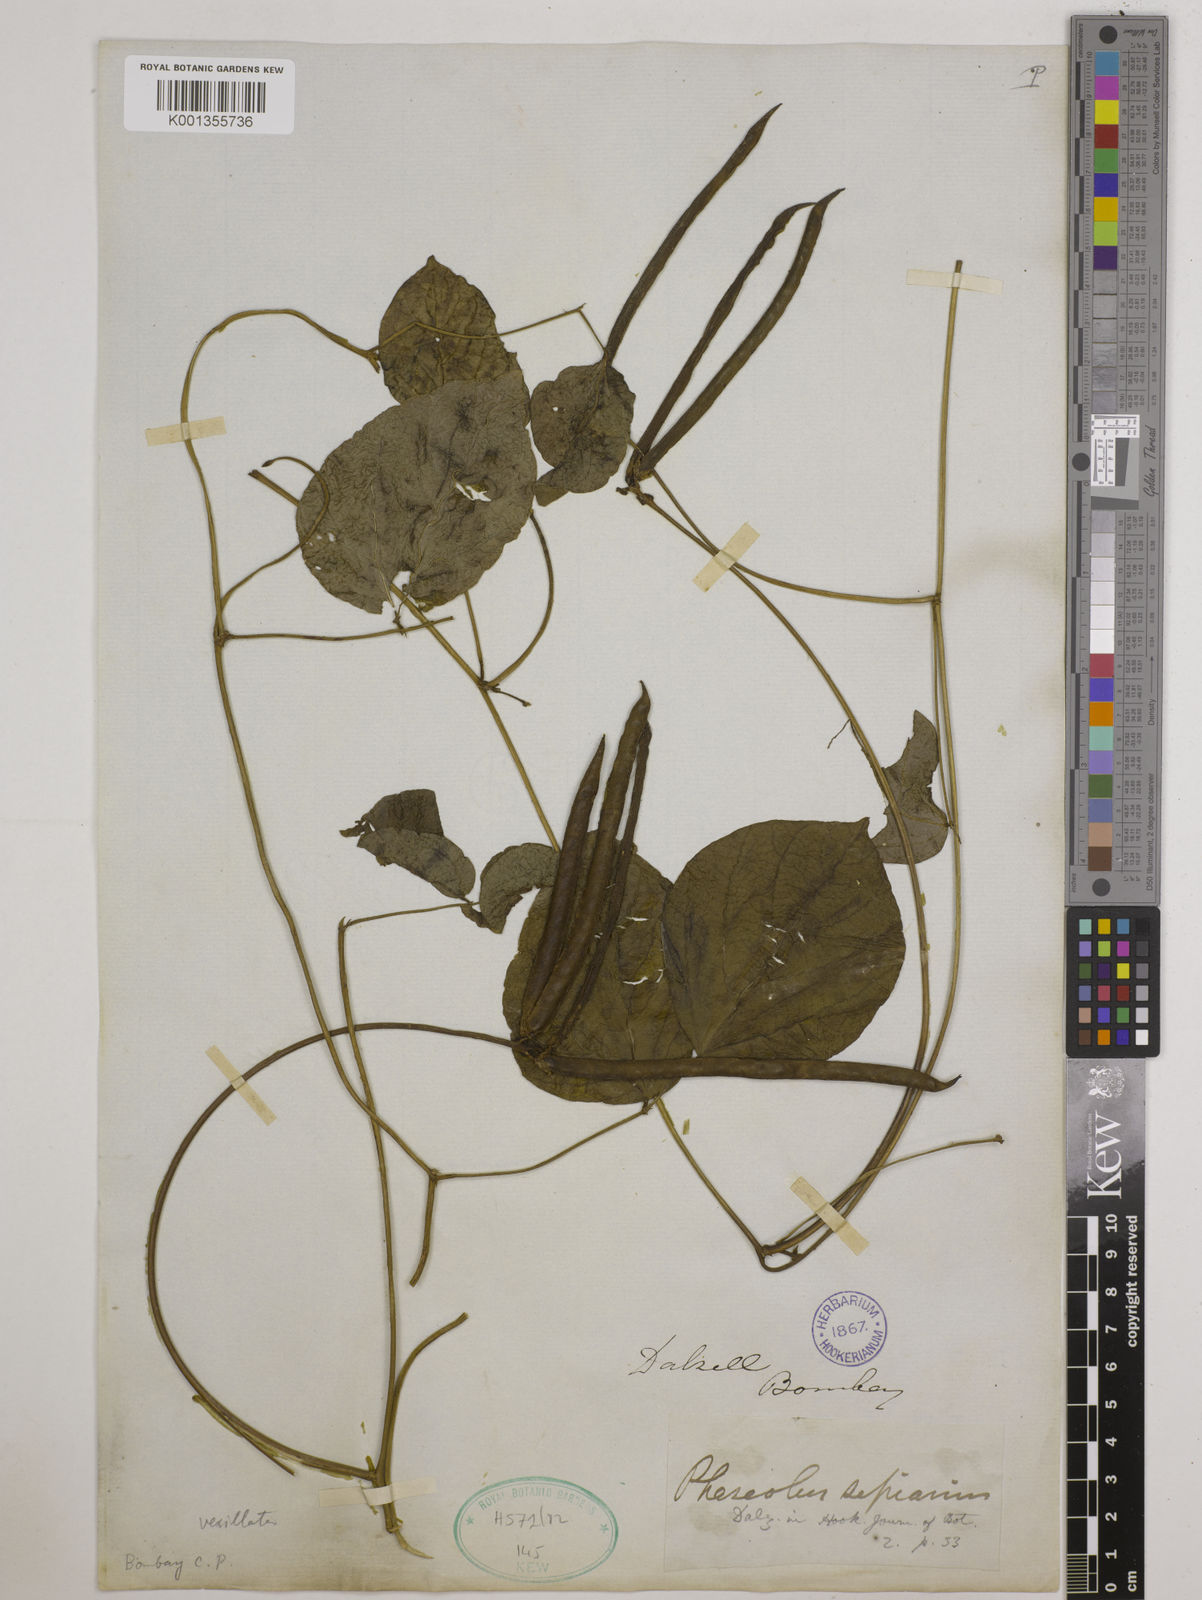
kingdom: Plantae
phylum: Tracheophyta
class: Magnoliopsida
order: Fabales
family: Fabaceae
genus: Vigna
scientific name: Vigna vexillata
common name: Zombi pea
